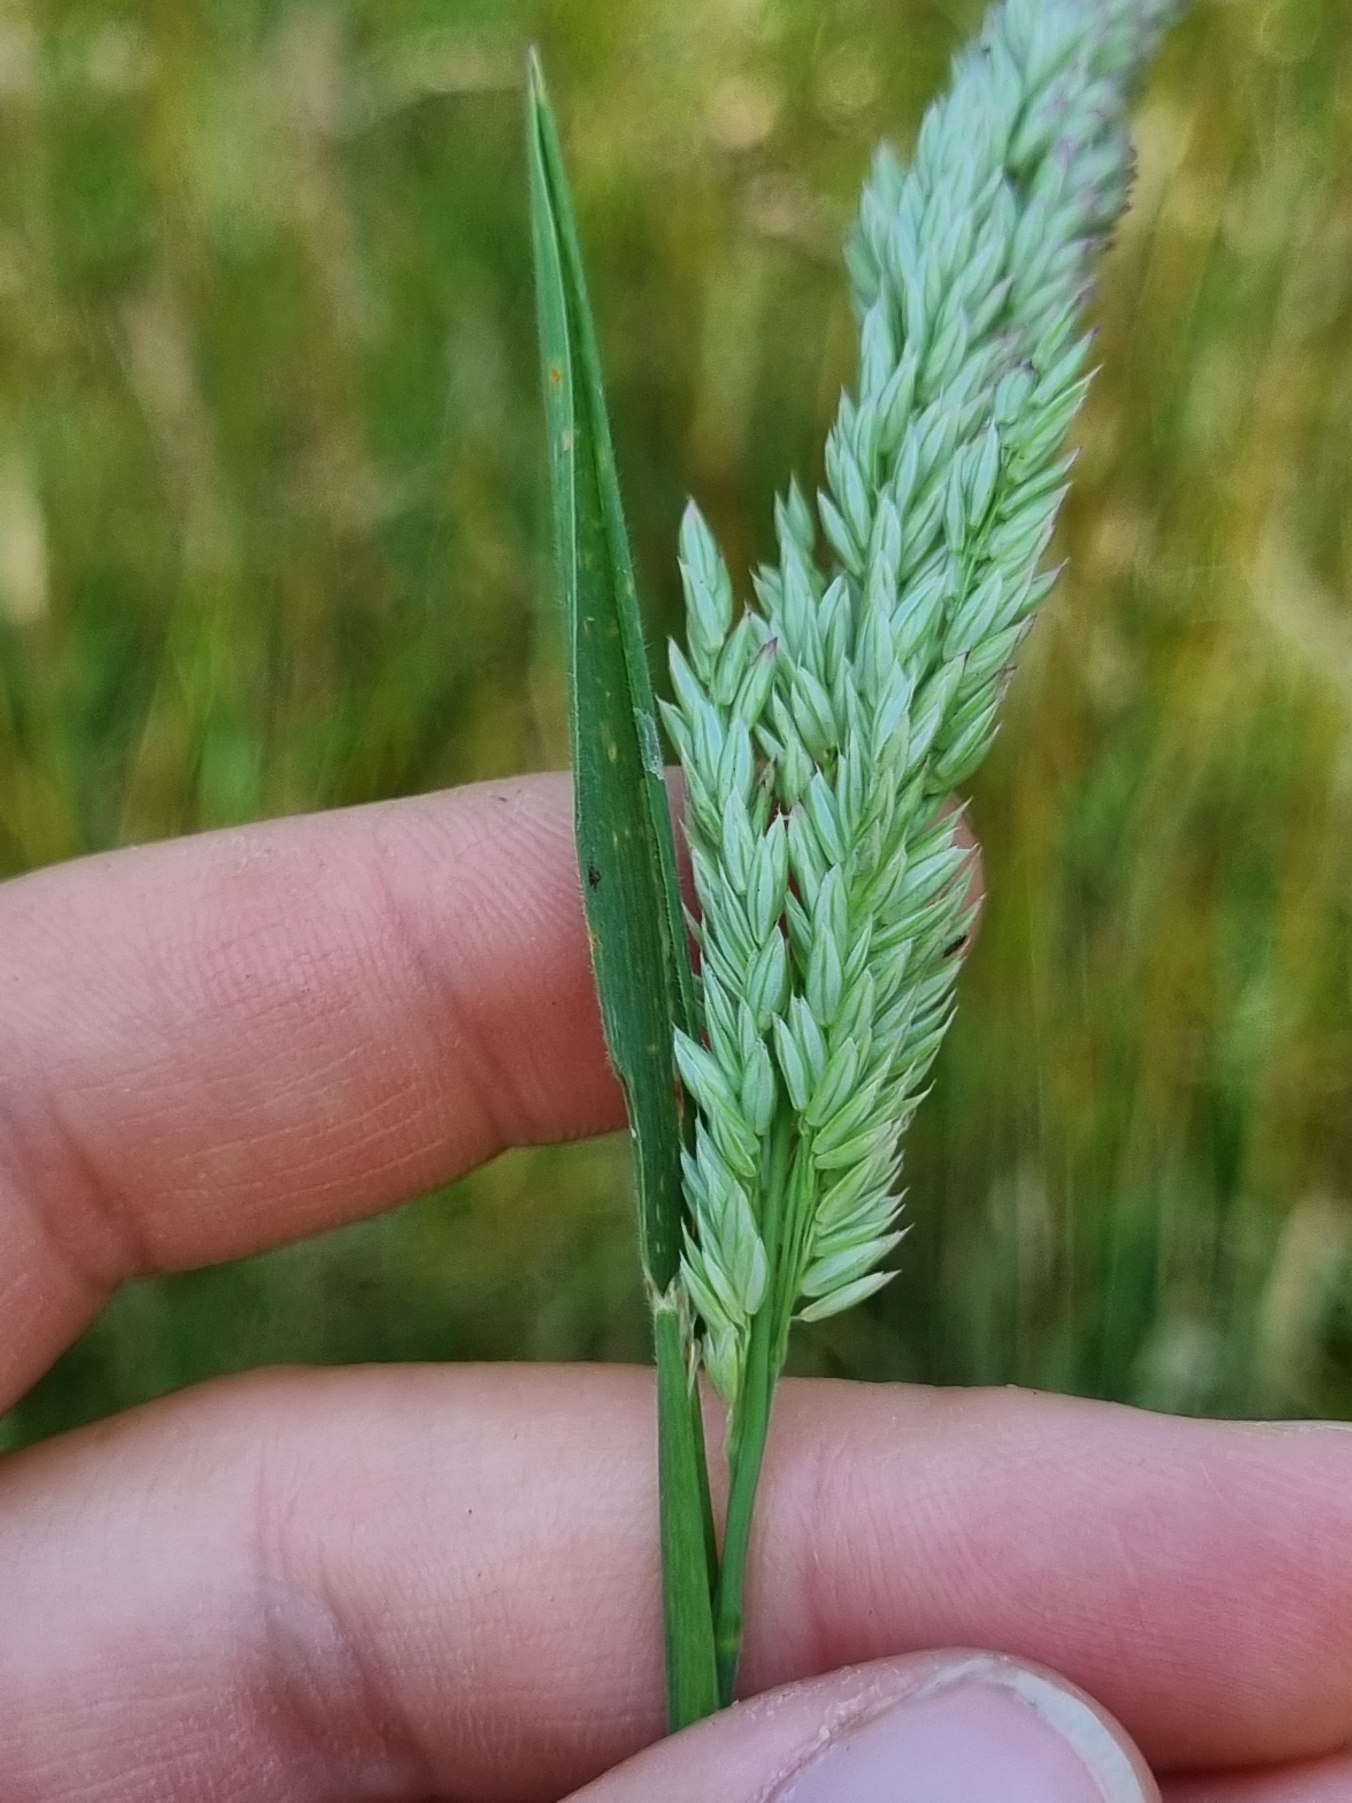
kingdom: Plantae
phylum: Tracheophyta
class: Liliopsida
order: Poales
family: Poaceae
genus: Holcus
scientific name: Holcus lanatus
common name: Fløjlsgræs
